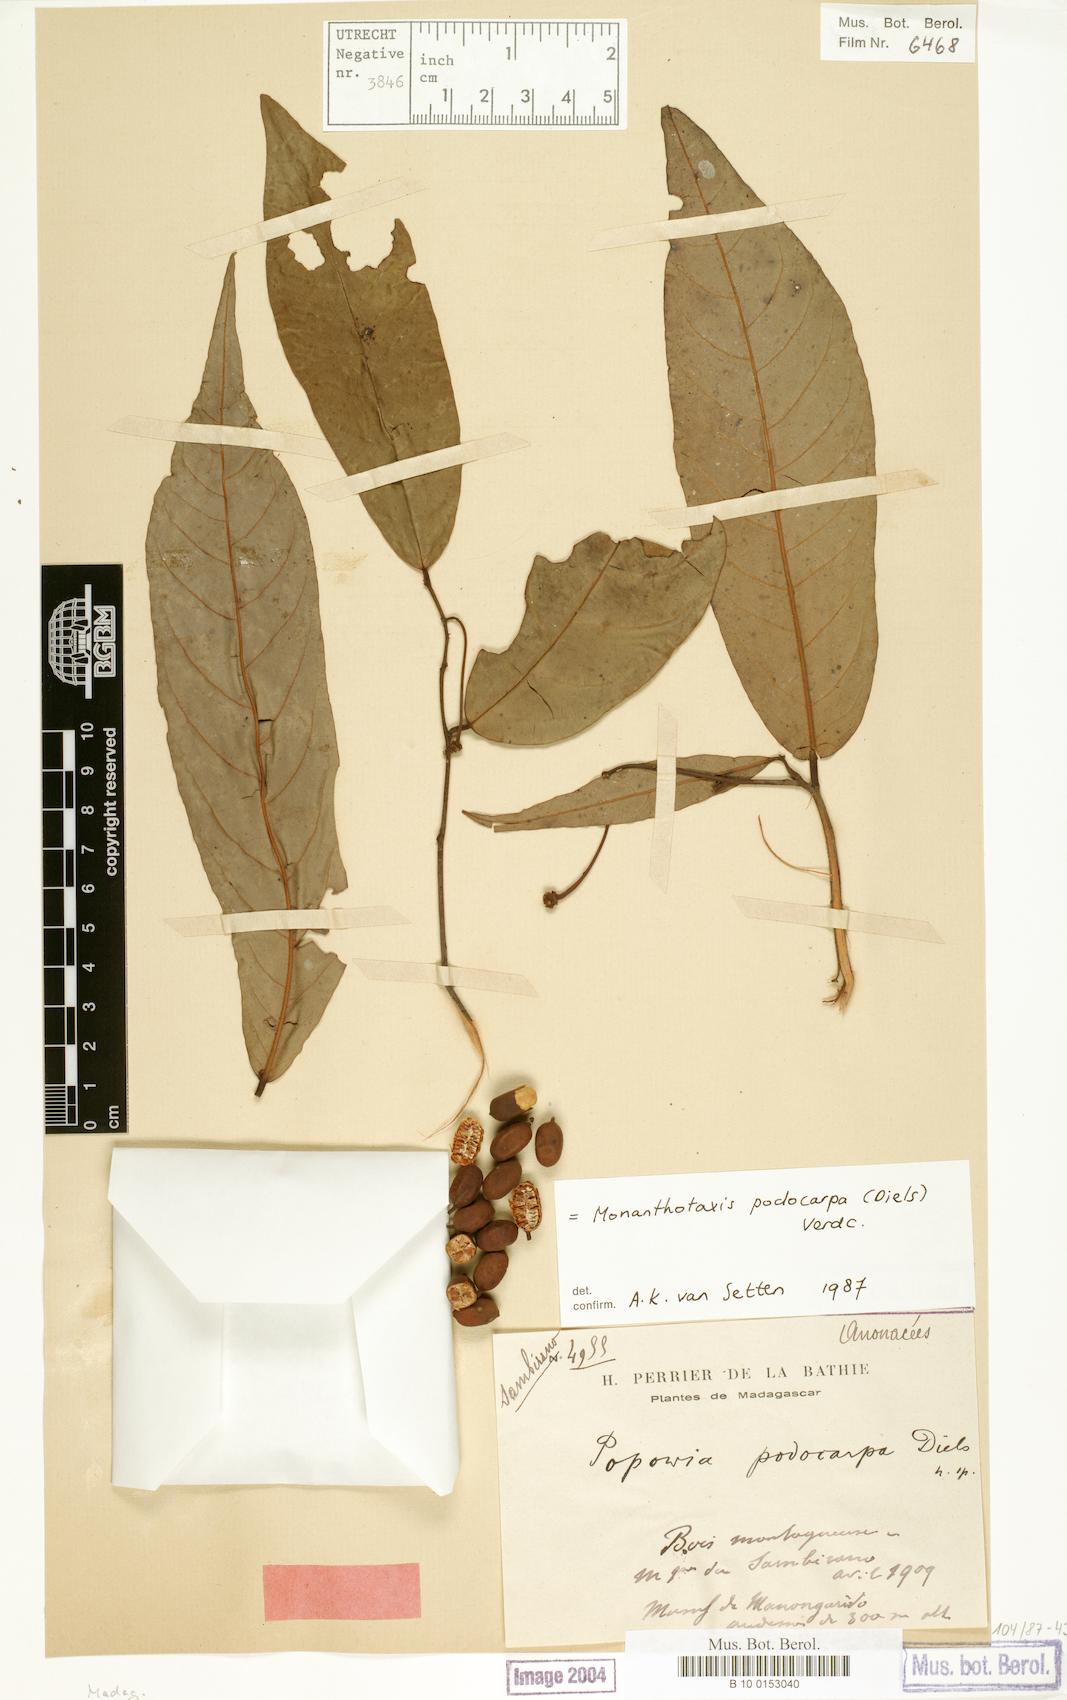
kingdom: Plantae
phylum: Tracheophyta
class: Magnoliopsida
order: Magnoliales
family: Annonaceae
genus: Monanthotaxis
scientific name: Monanthotaxis podocarpa
